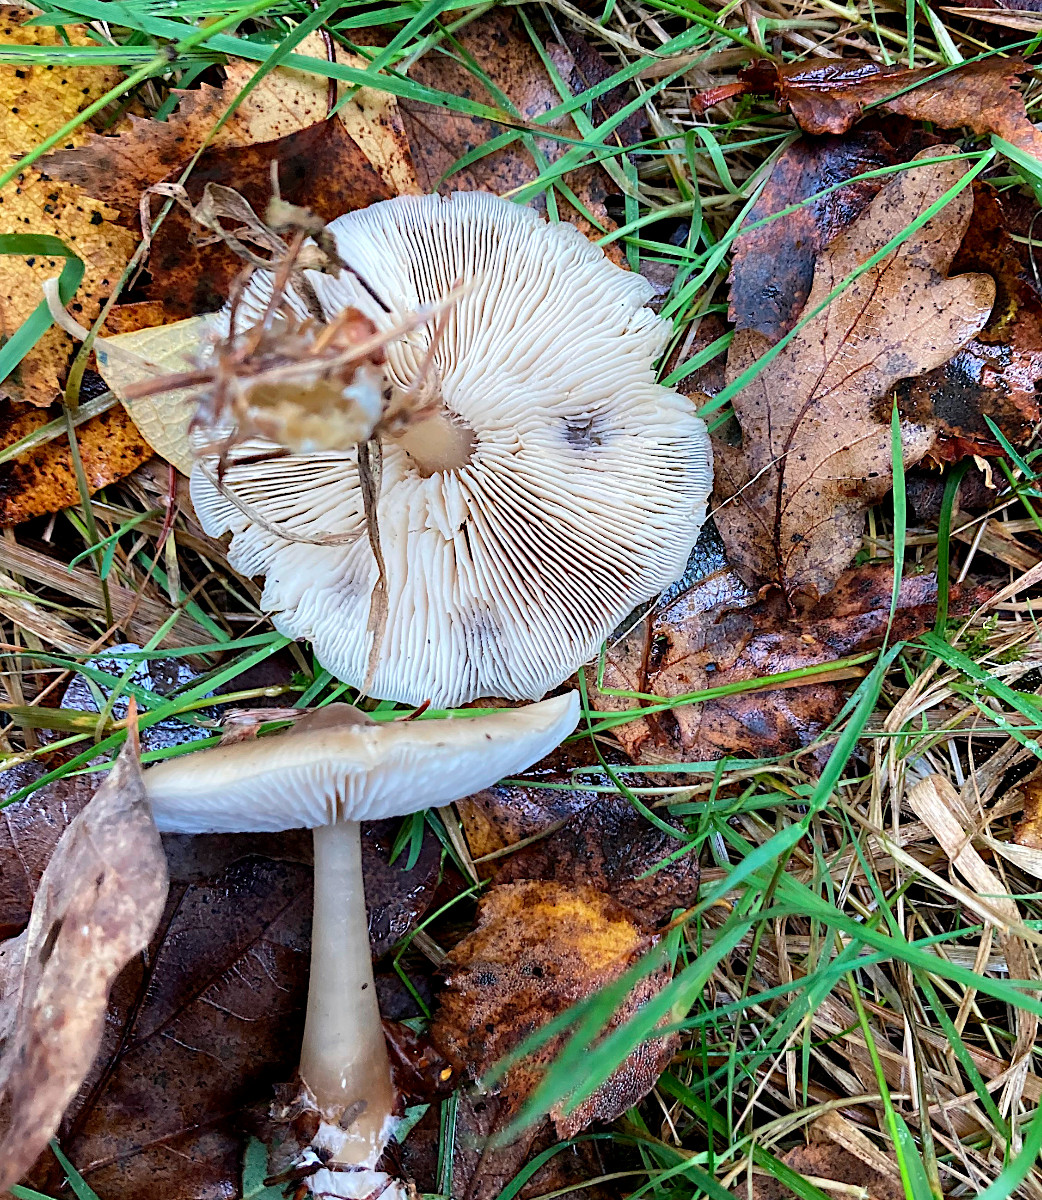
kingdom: Fungi
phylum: Basidiomycota
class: Agaricomycetes
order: Agaricales
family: Omphalotaceae
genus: Rhodocollybia
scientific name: Rhodocollybia asema
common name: horngrå fladhat
